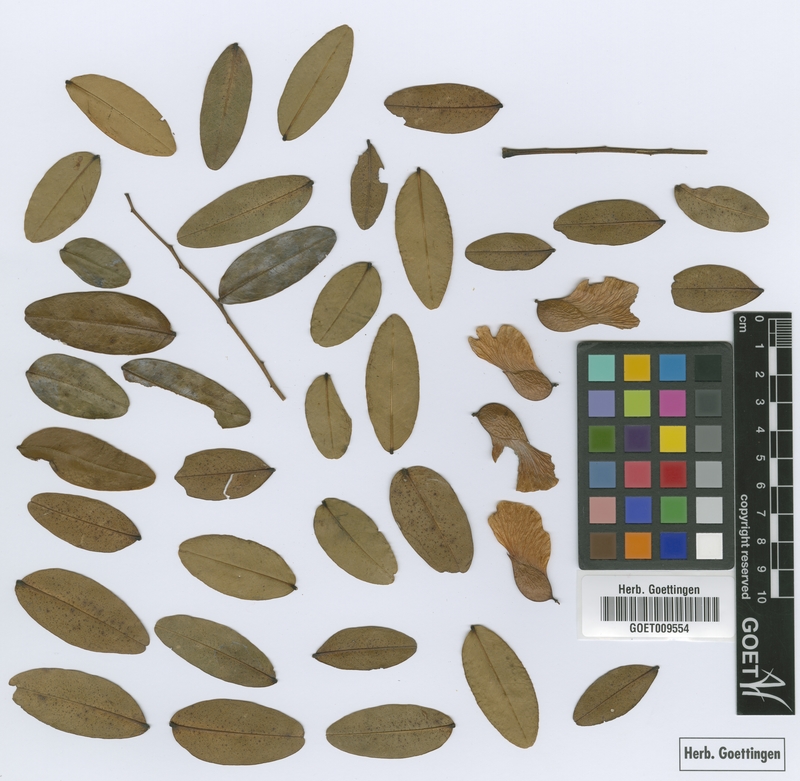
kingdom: Plantae
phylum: Tracheophyta
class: Magnoliopsida
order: Fabales
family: Fabaceae
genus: Pterogyne
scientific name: Pterogyne nitens
